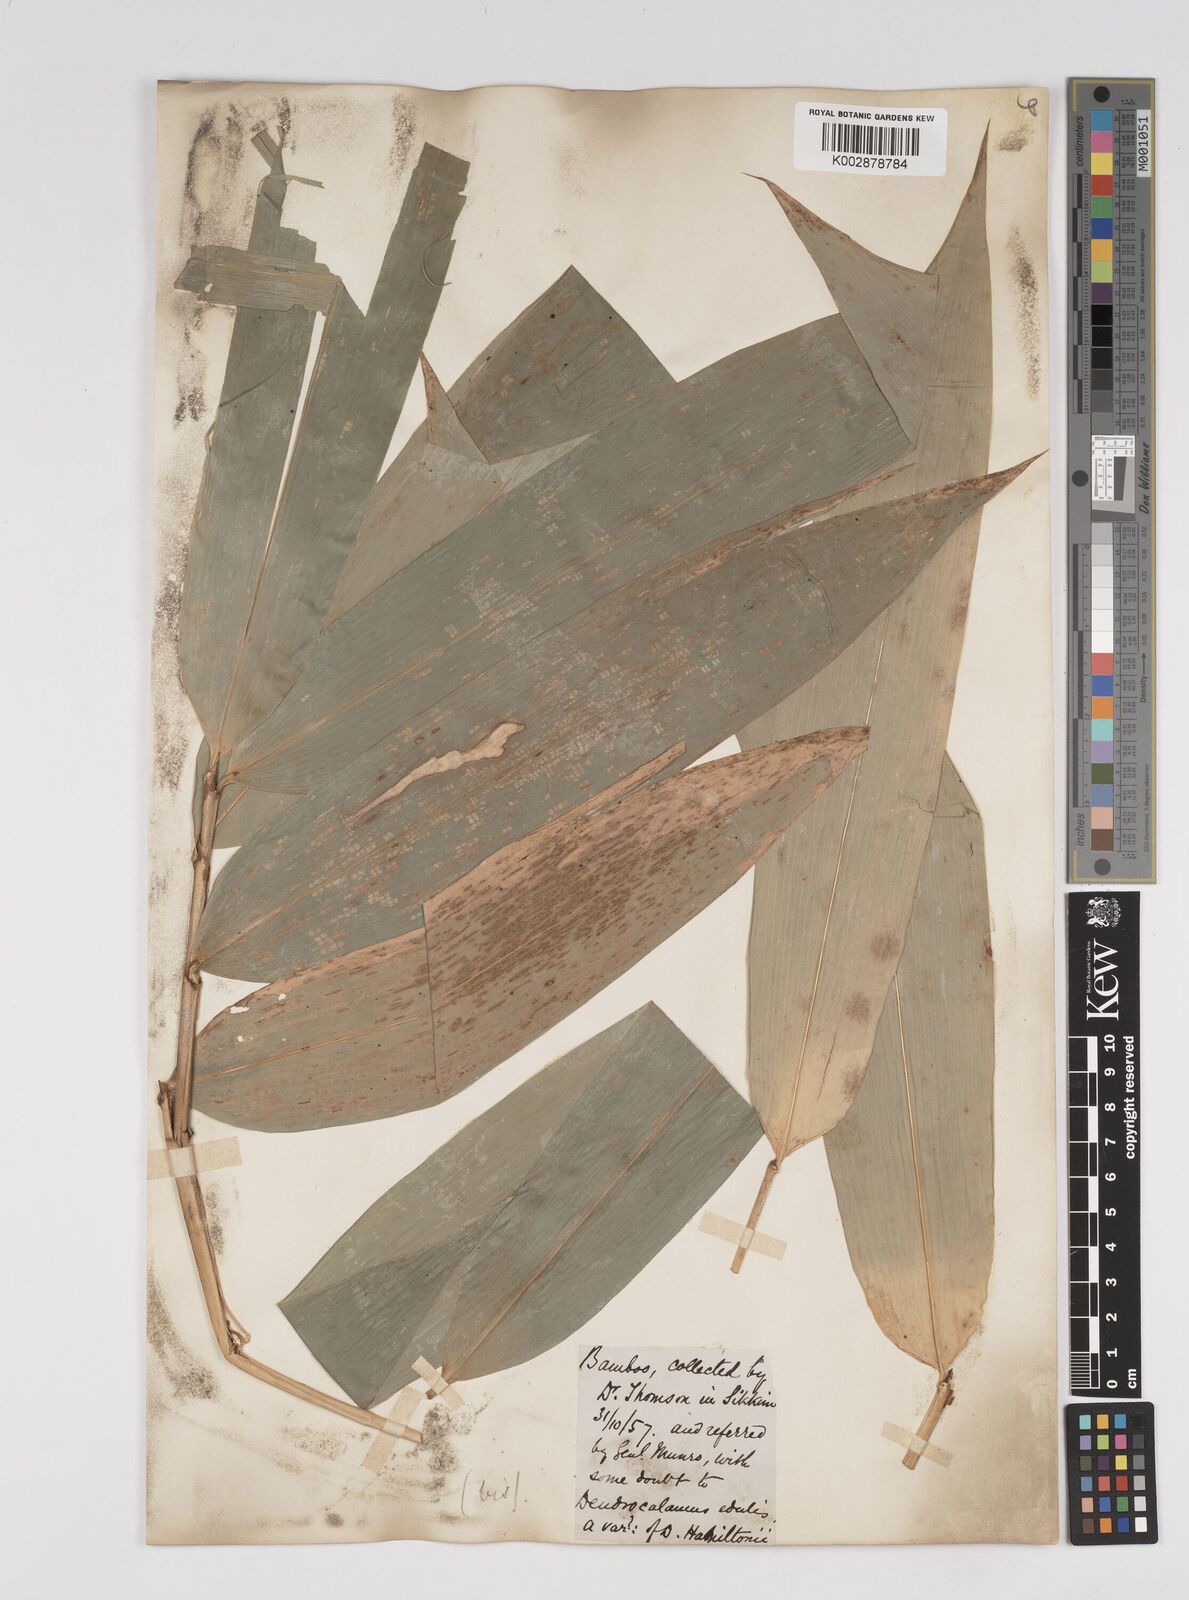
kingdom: Plantae
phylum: Tracheophyta
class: Liliopsida
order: Poales
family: Poaceae
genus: Dendrocalamus
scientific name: Dendrocalamus hamiltonii
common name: Tama bamboo
